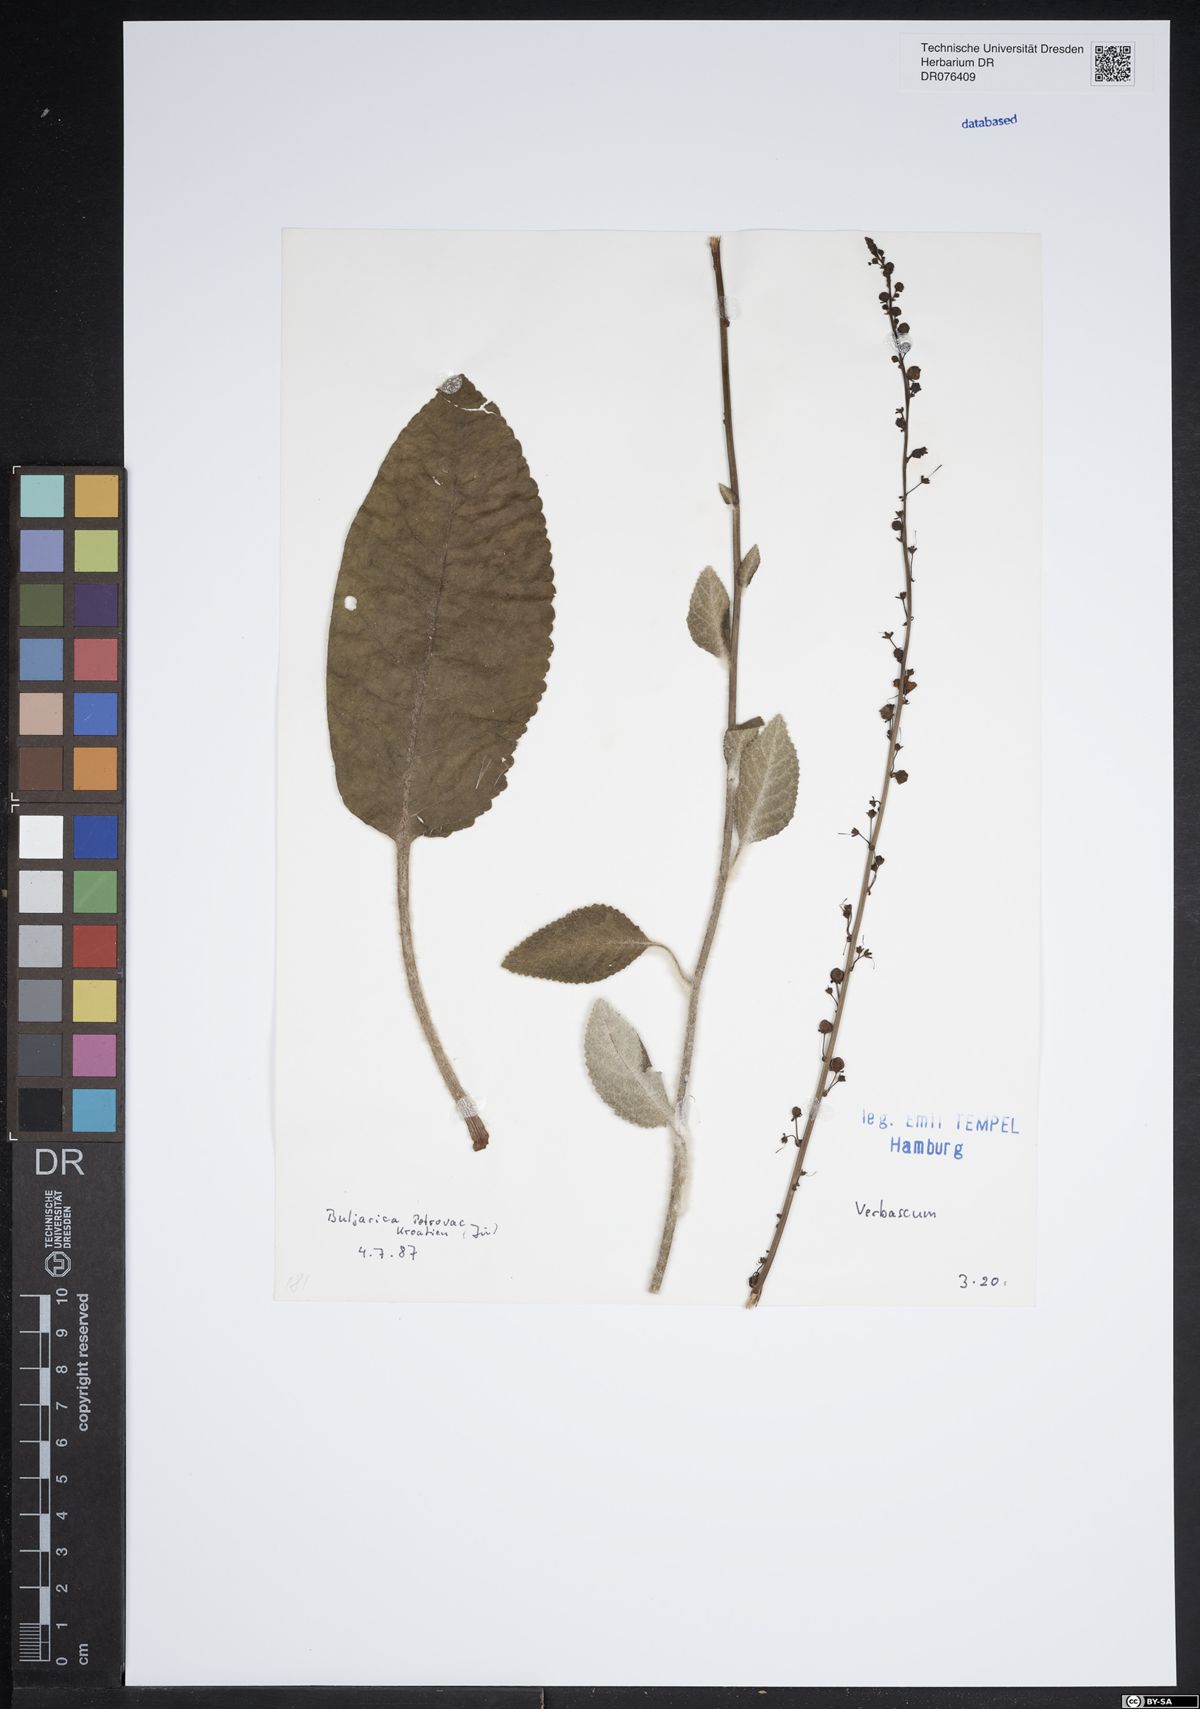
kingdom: Plantae
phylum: Tracheophyta
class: Magnoliopsida
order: Lamiales
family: Scrophulariaceae
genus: Verbascum
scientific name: Verbascum
